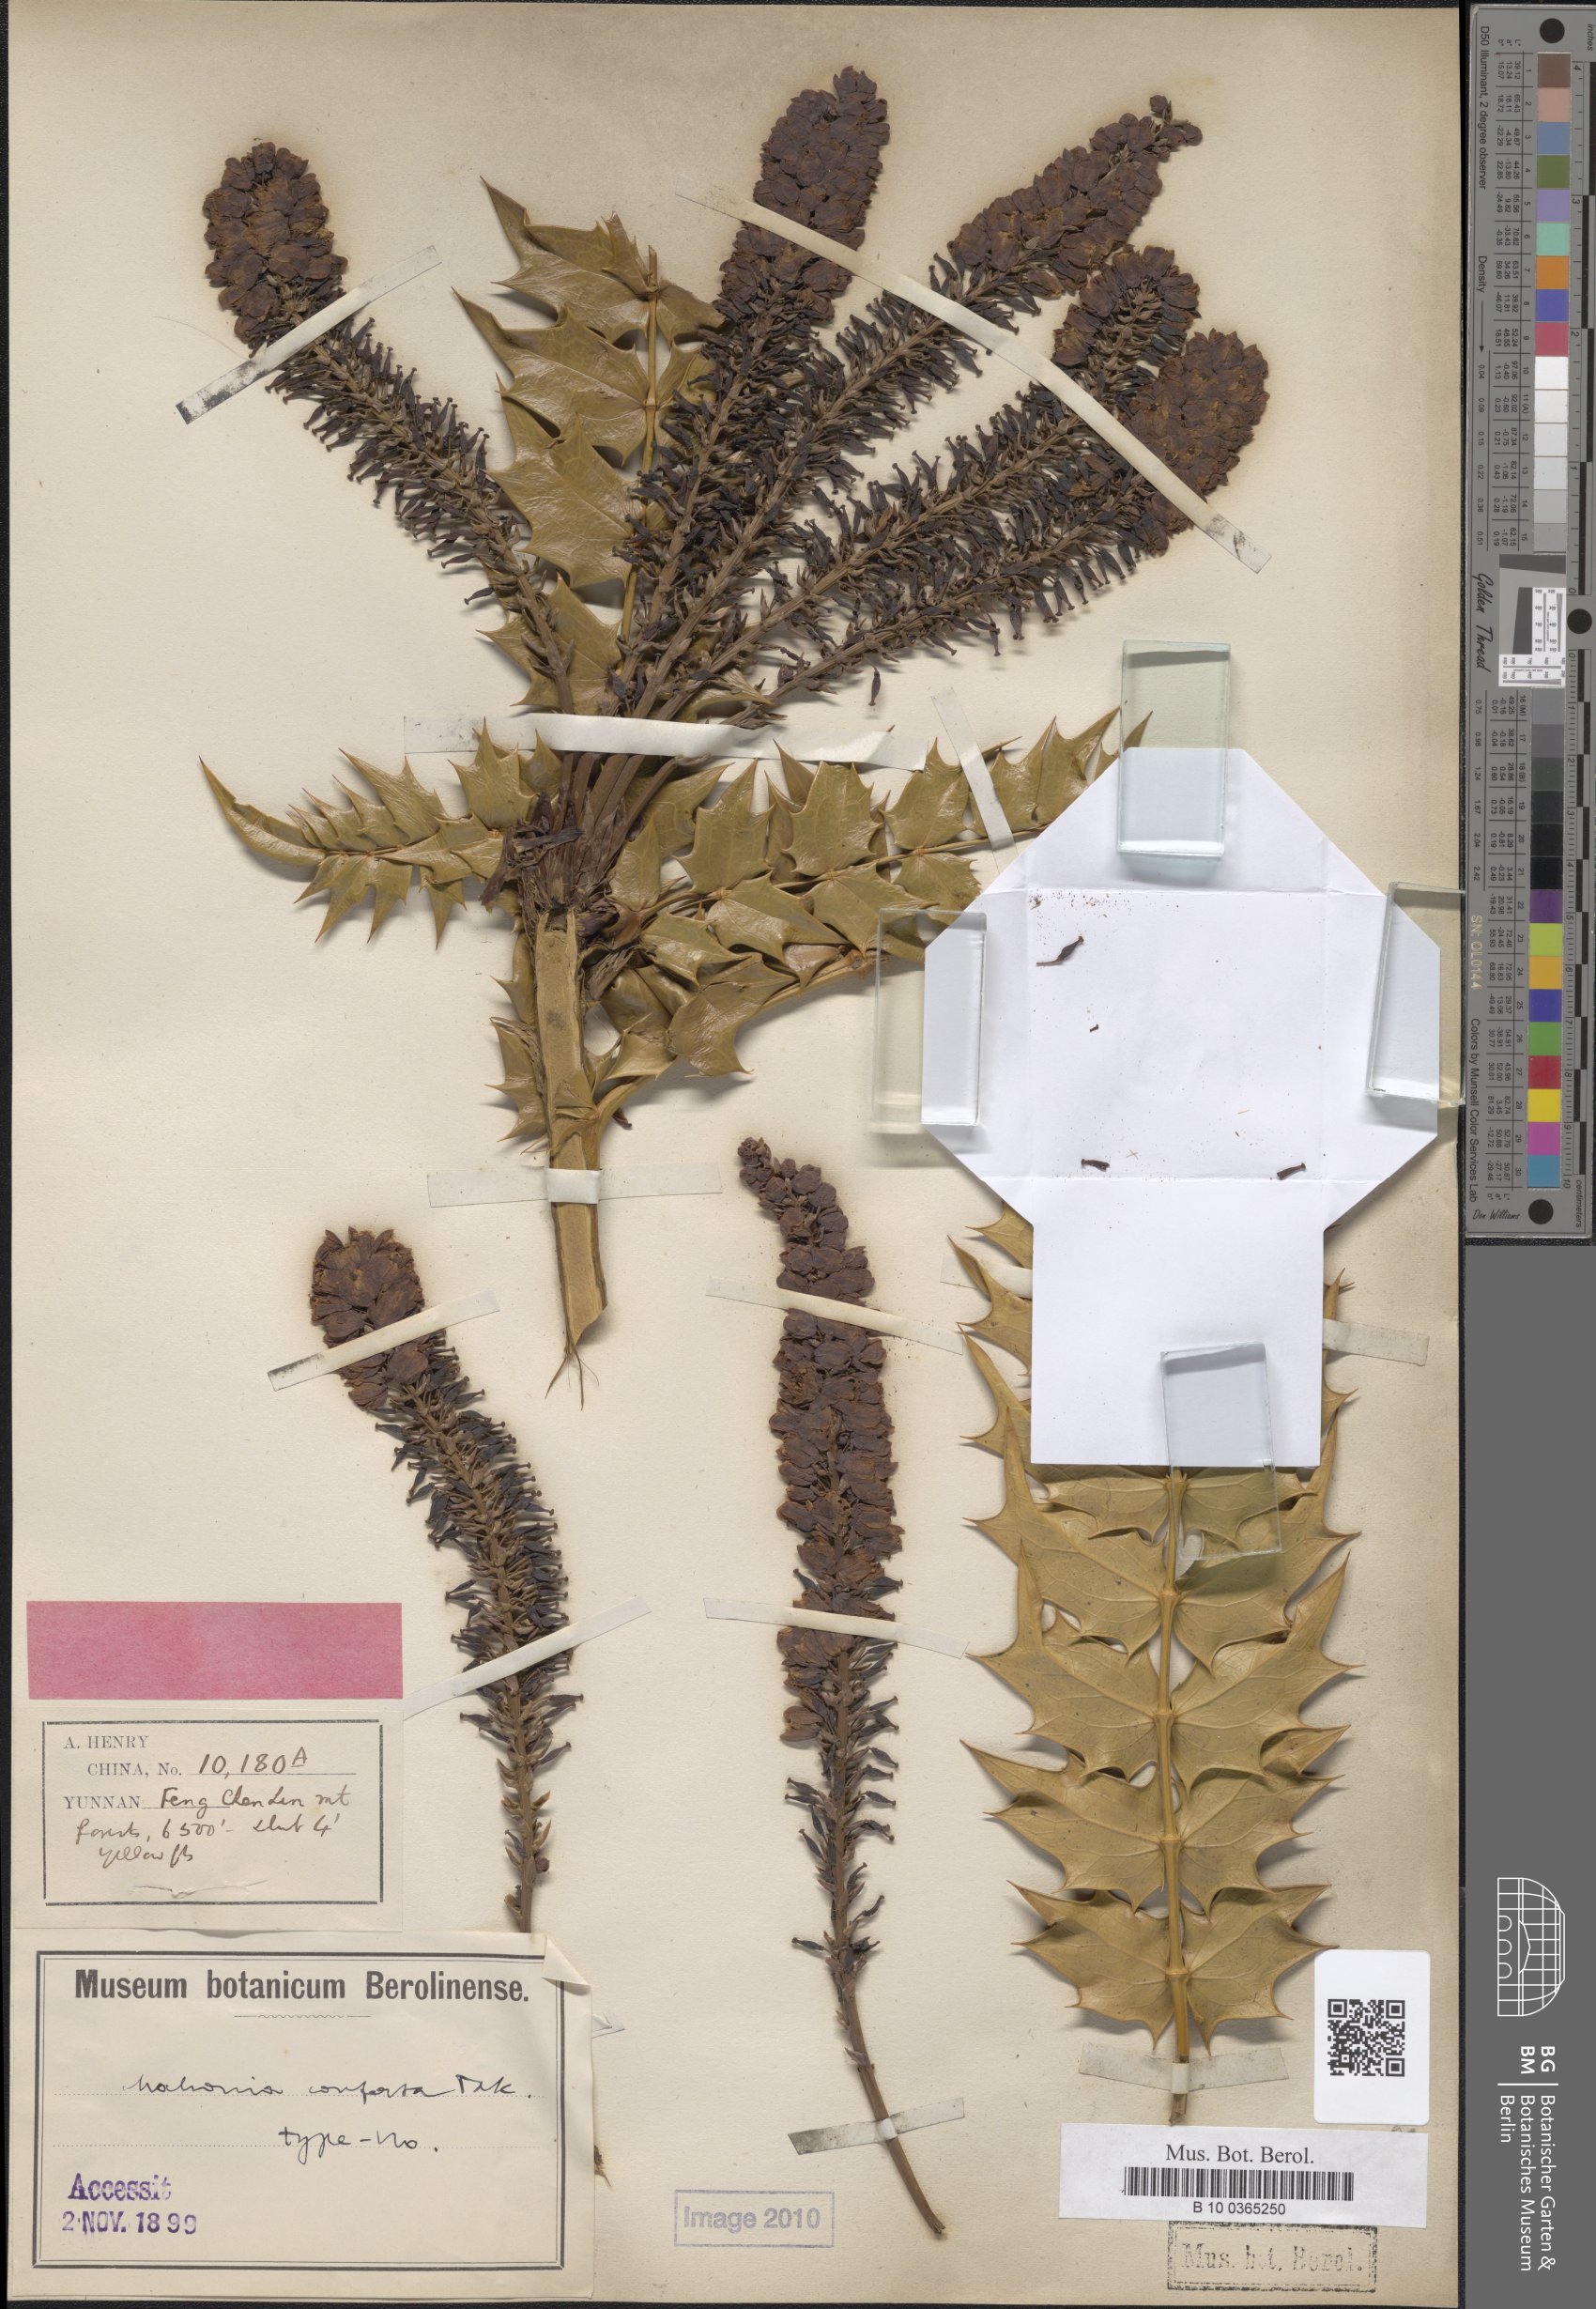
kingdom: Plantae
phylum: Tracheophyta
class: Magnoliopsida
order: Ranunculales
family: Berberidaceae
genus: Mahonia
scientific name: Mahonia conferta
